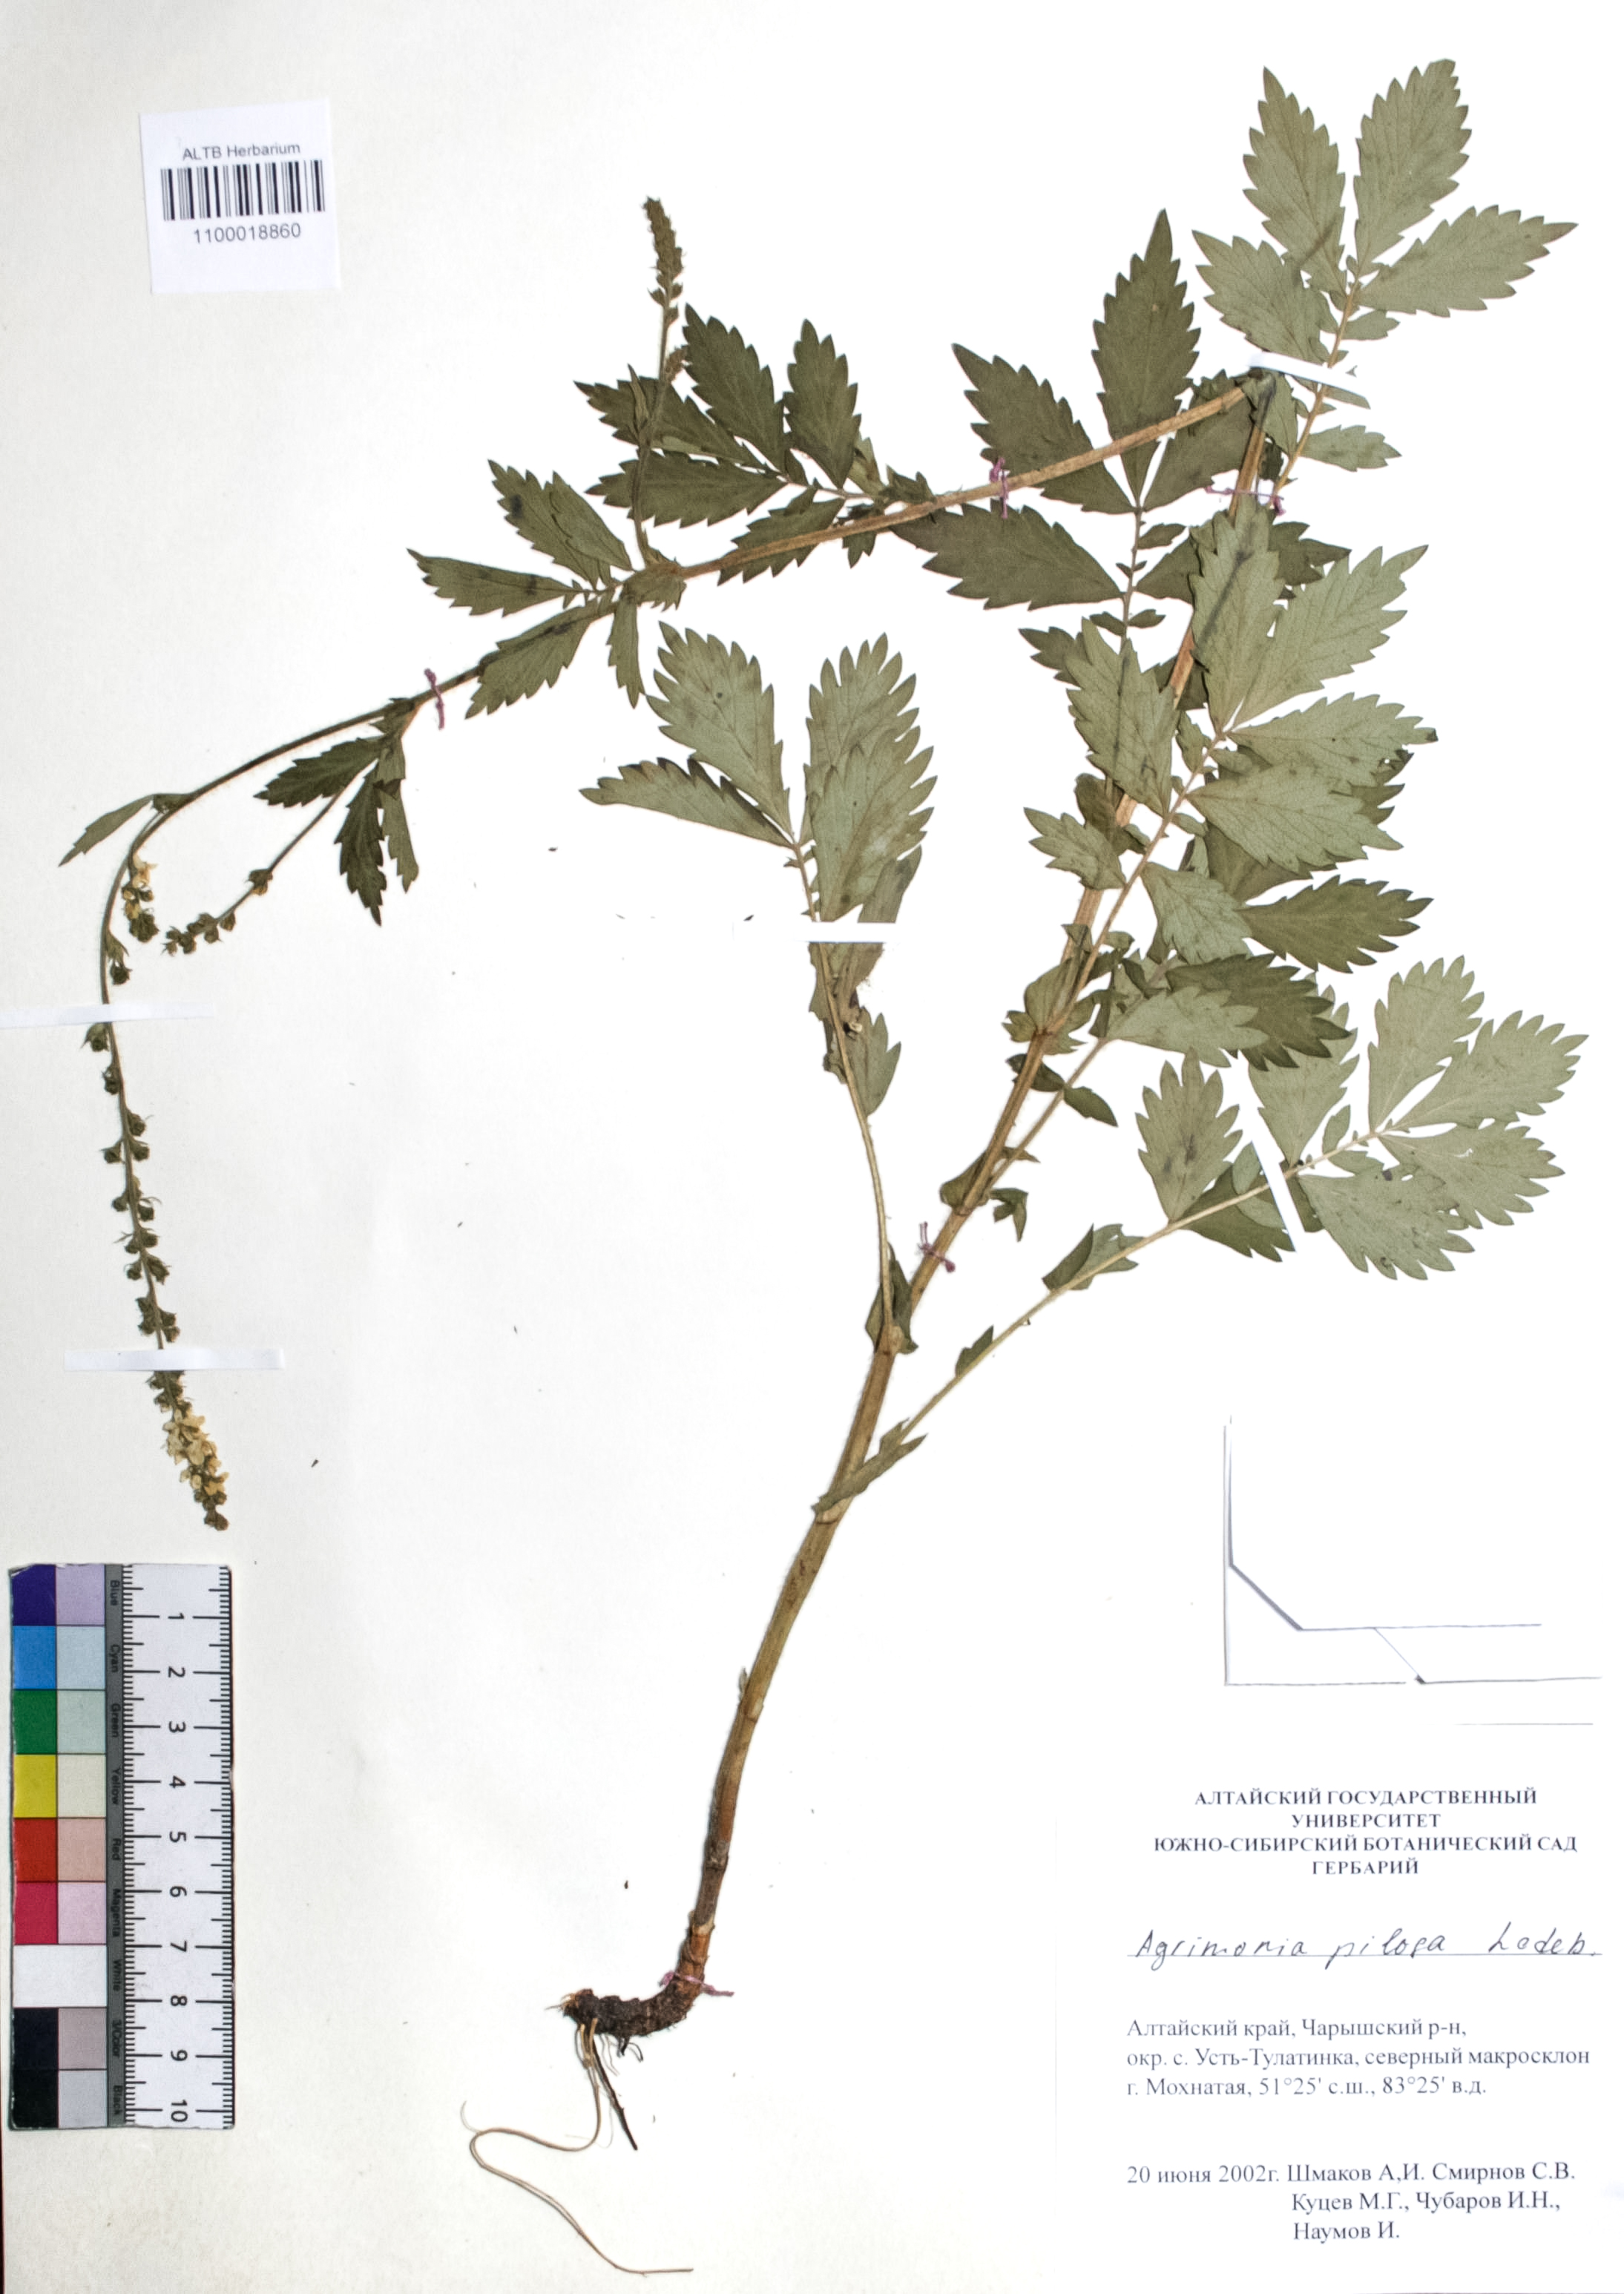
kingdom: Plantae
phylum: Tracheophyta
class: Magnoliopsida
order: Rosales
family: Rosaceae
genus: Agrimonia
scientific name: Agrimonia pilosa
